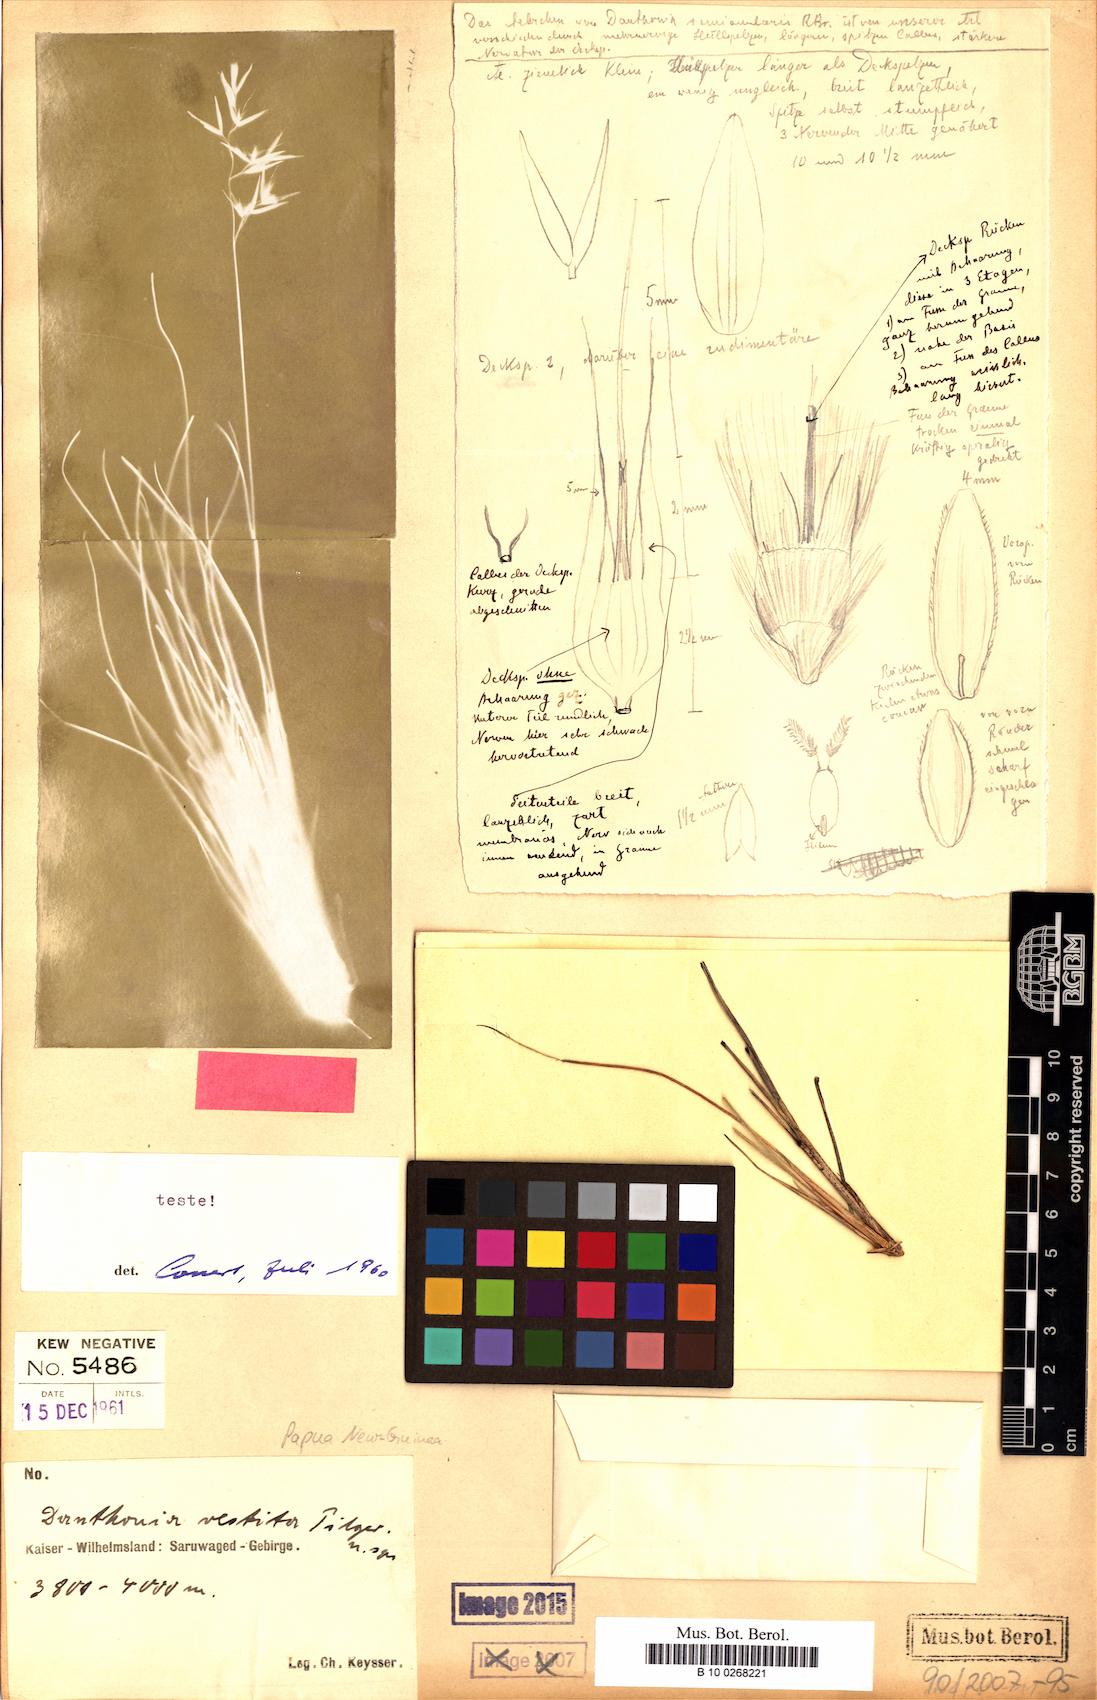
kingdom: Plantae
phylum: Tracheophyta
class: Liliopsida
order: Poales
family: Poaceae
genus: Rytidosperma
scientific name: Rytidosperma vestitum
